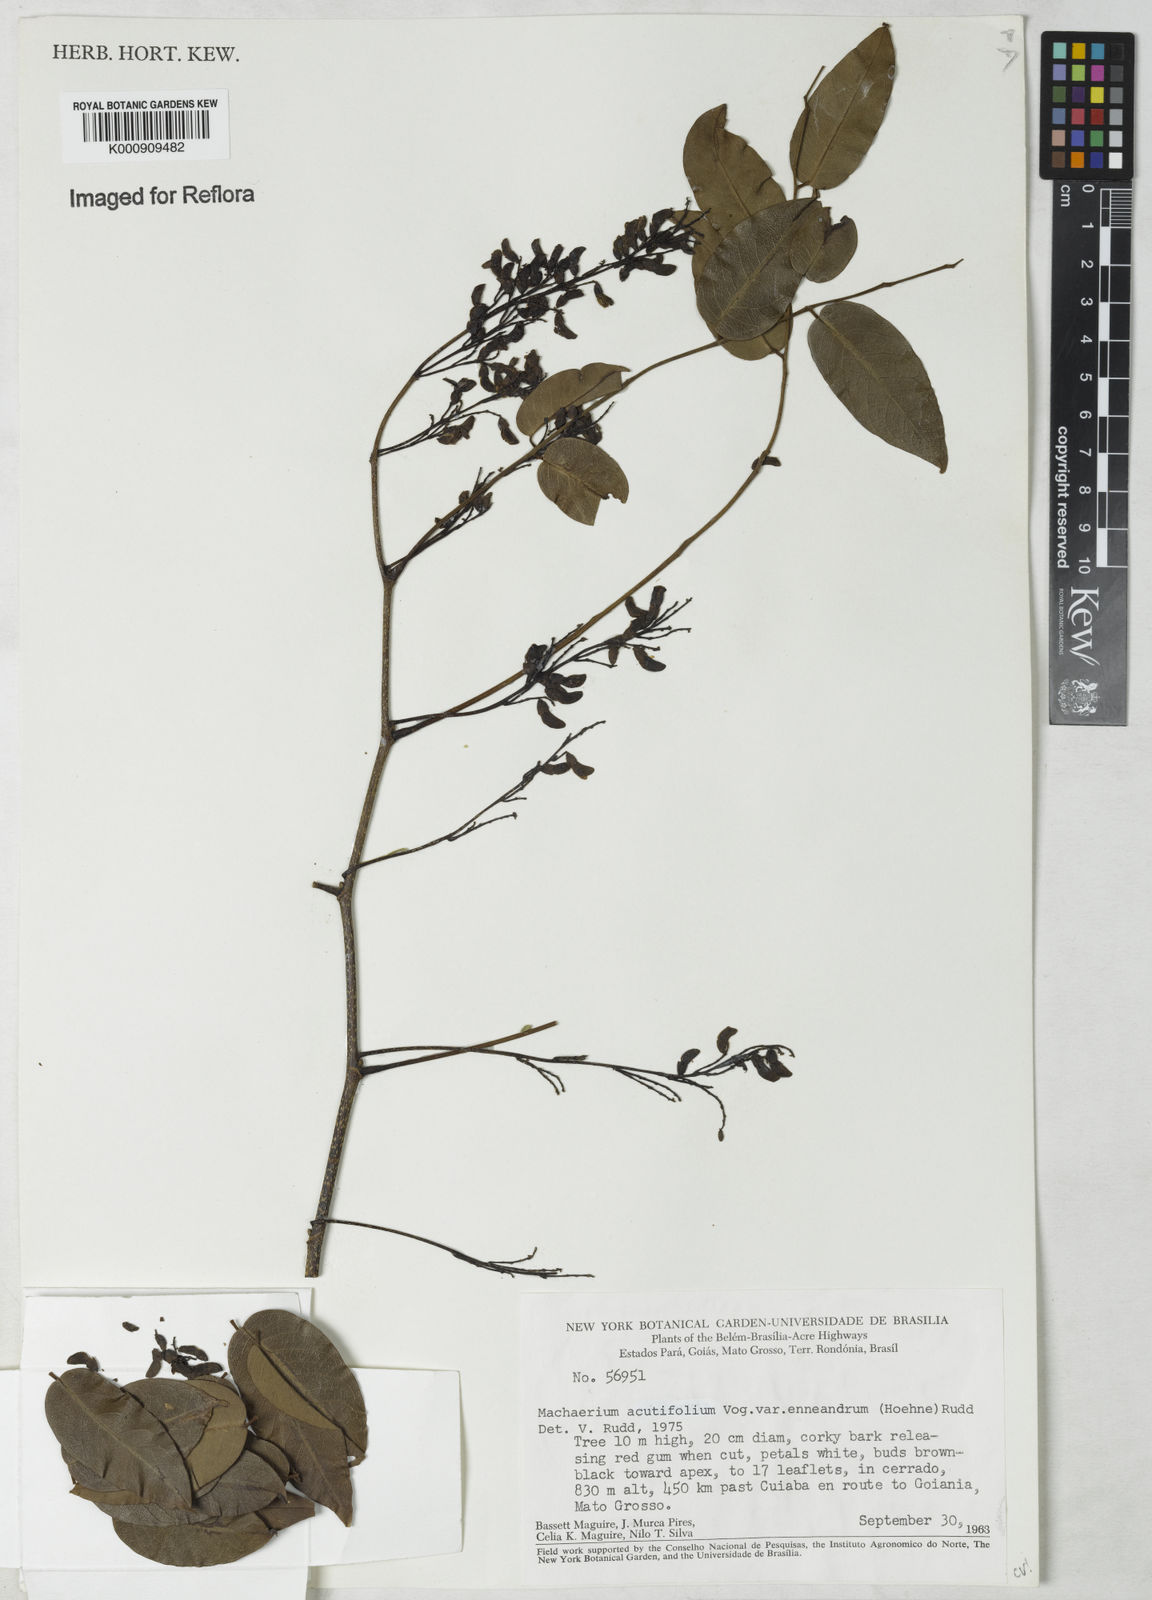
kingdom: Plantae
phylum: Tracheophyta
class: Magnoliopsida
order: Fabales
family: Fabaceae
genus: Machaerium
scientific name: Machaerium acutifolium
